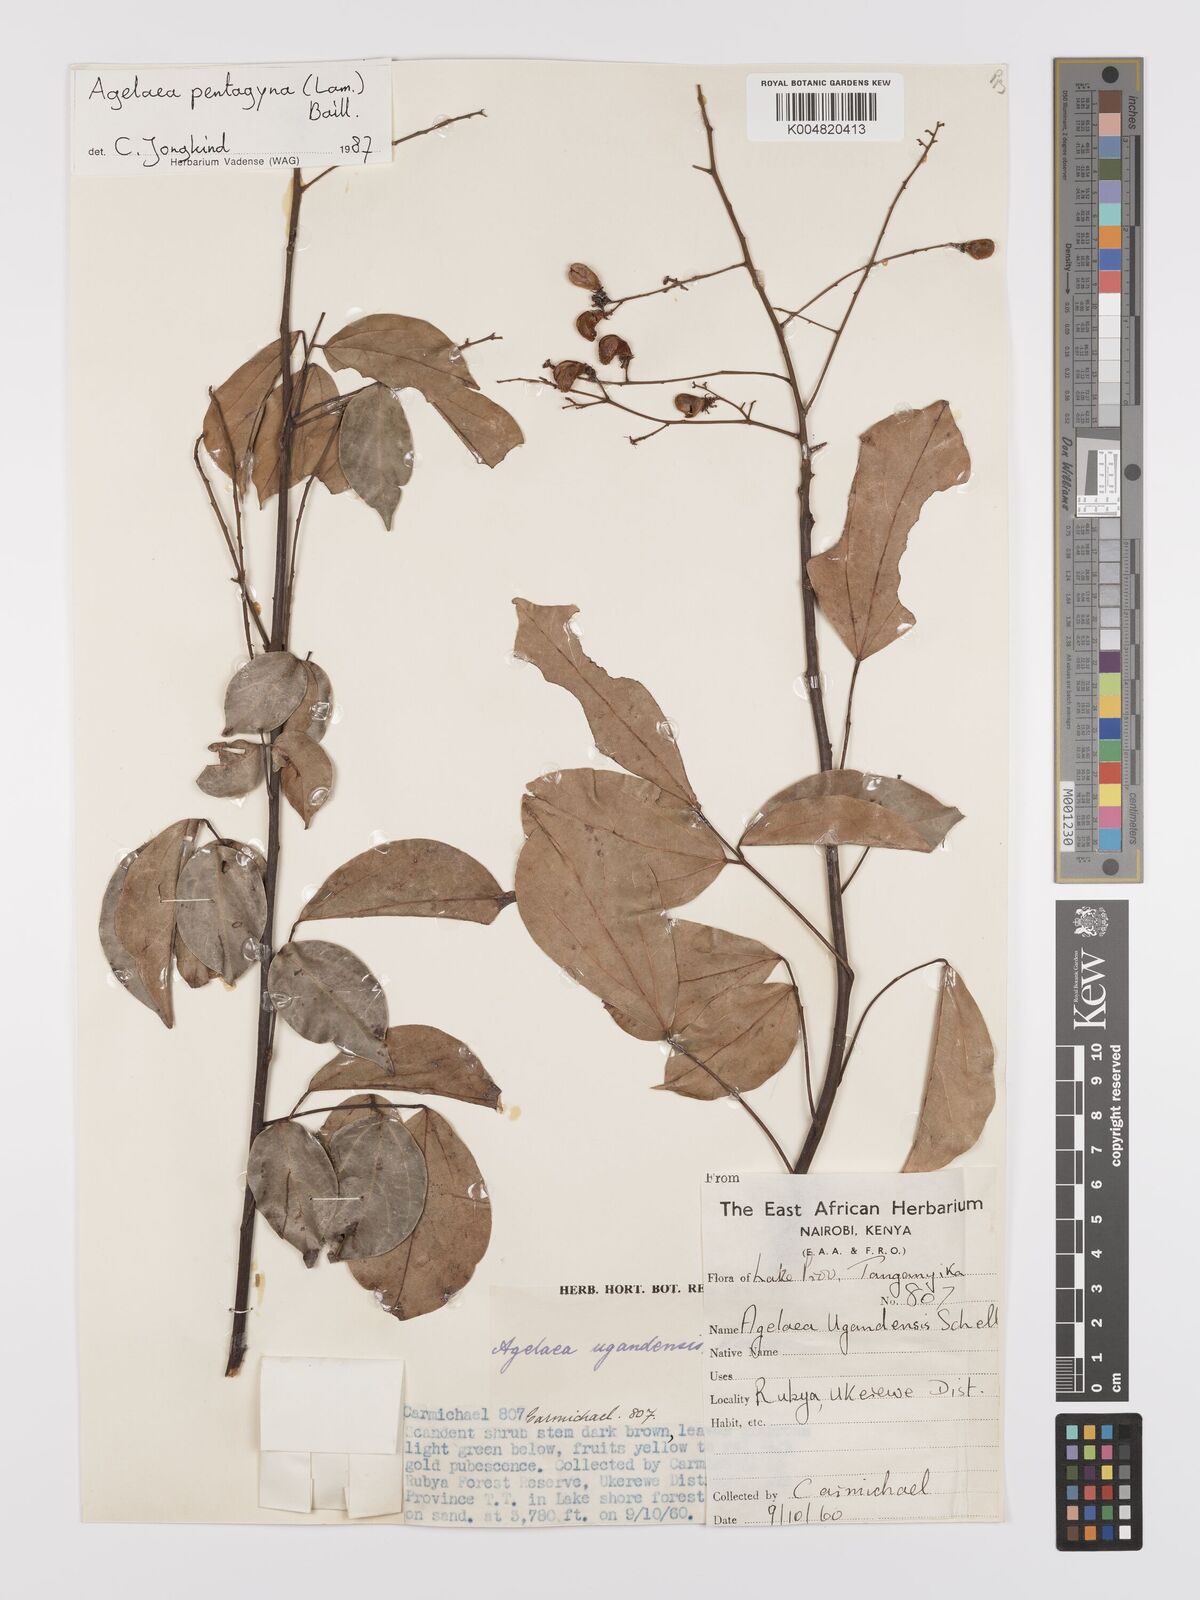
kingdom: Plantae
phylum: Tracheophyta
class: Magnoliopsida
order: Oxalidales
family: Connaraceae
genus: Agelaea
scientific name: Agelaea pentagyna
